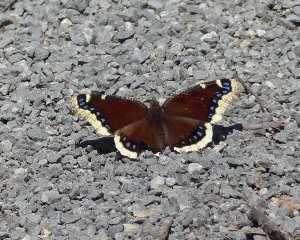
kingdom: Animalia
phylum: Arthropoda
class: Insecta
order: Lepidoptera
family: Nymphalidae
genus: Nymphalis
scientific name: Nymphalis antiopa
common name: Mourning Cloak
